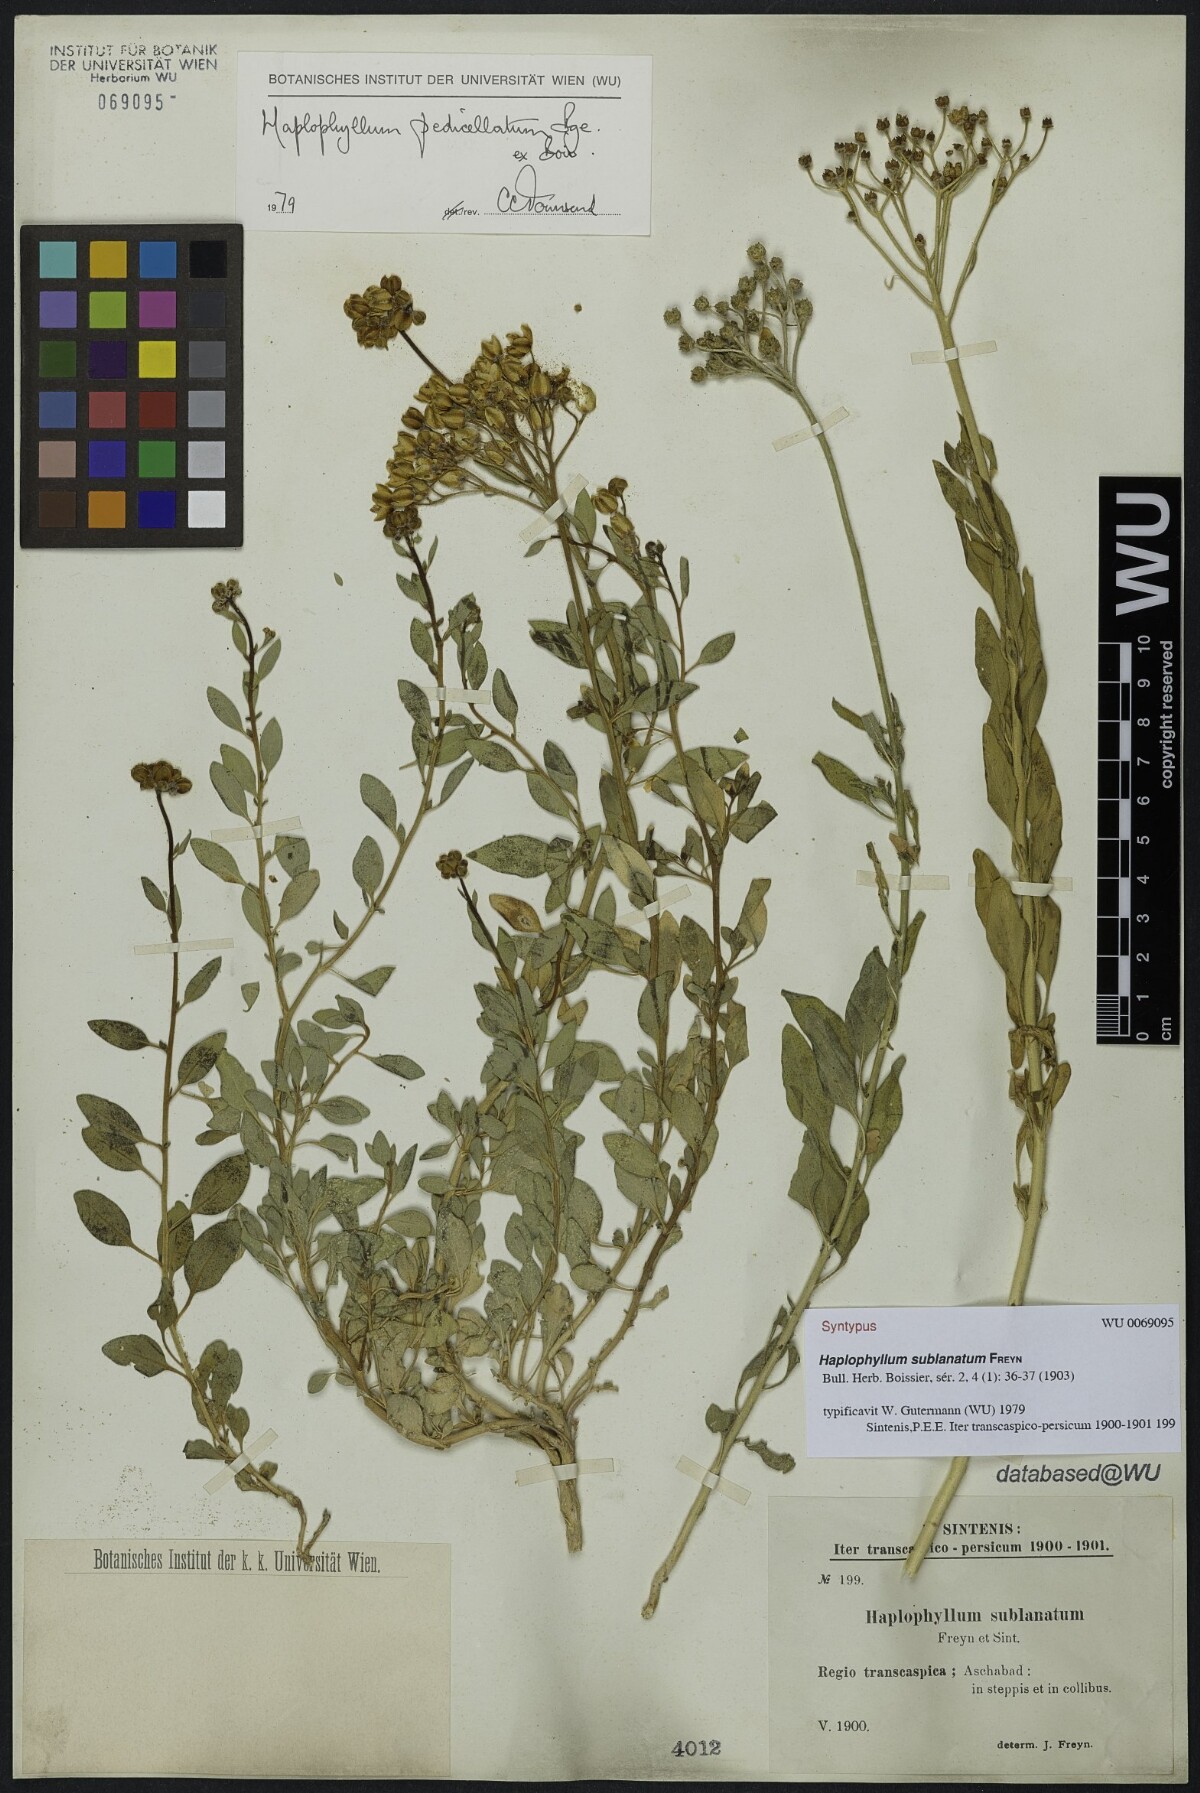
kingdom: Plantae
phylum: Tracheophyta
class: Magnoliopsida
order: Sapindales
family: Rutaceae
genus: Haplophyllum
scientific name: Haplophyllum pedicellatum
